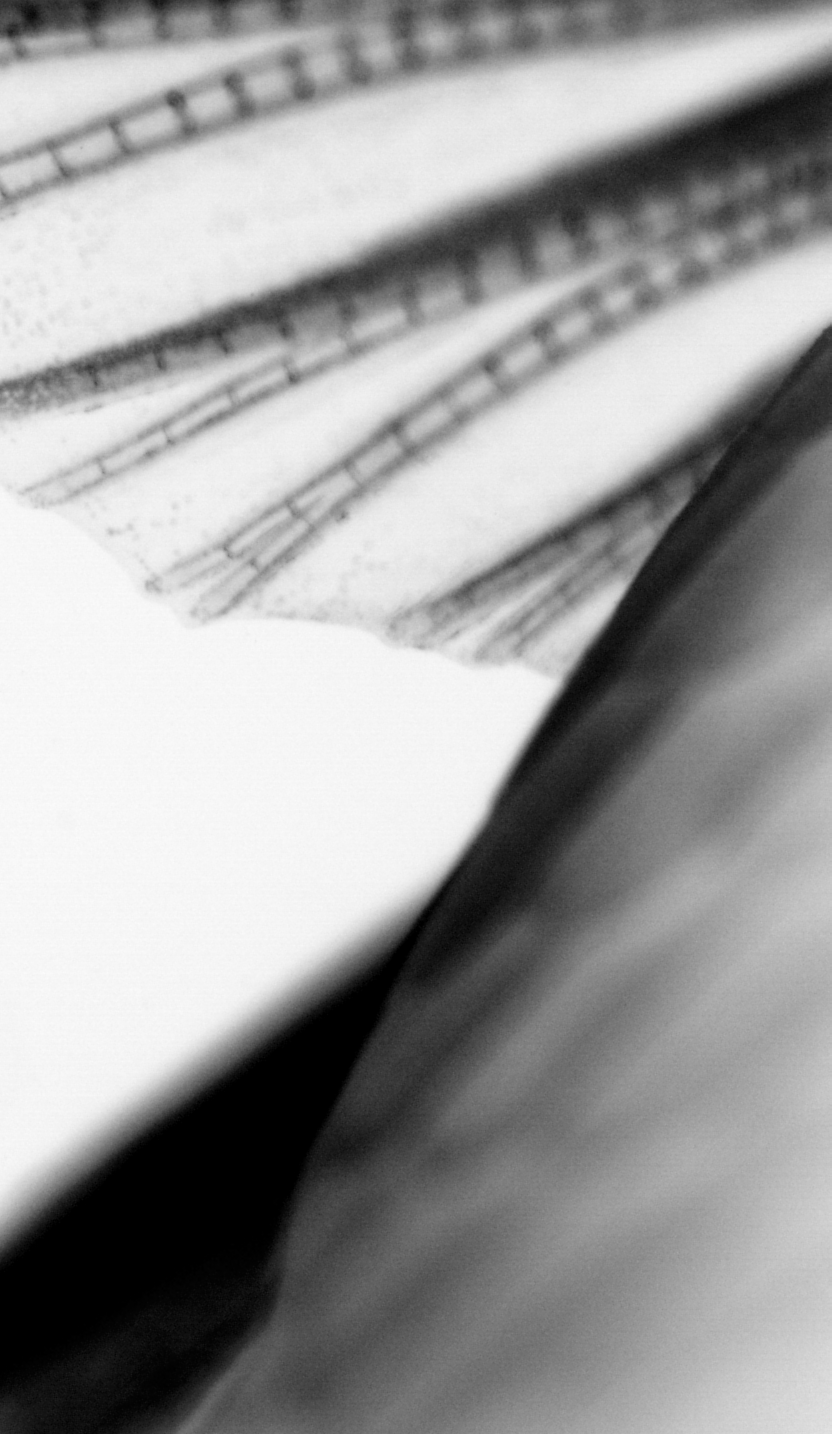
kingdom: Animalia
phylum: Chordata
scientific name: Chordata
